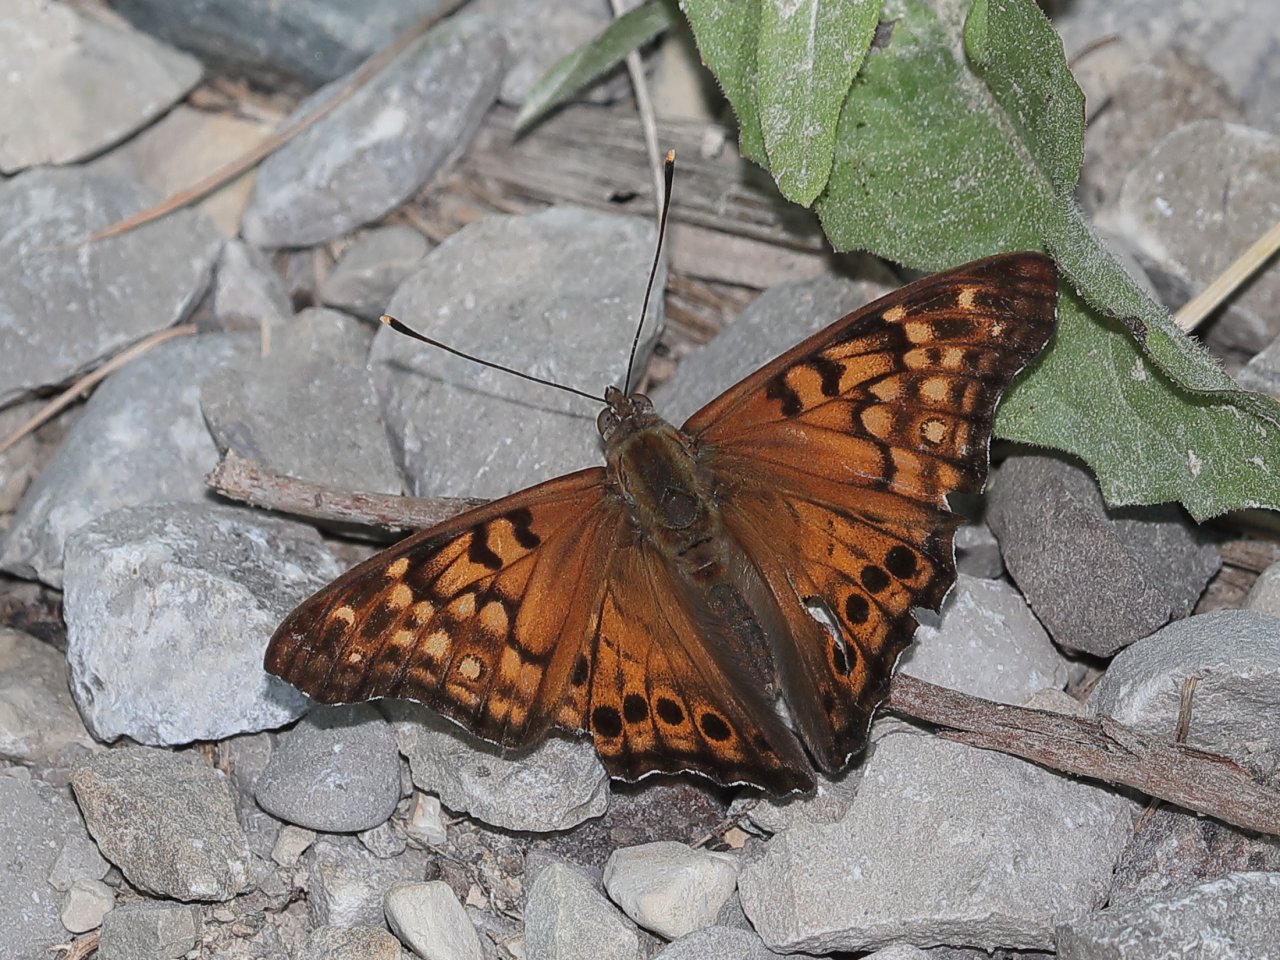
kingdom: Animalia
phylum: Arthropoda
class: Insecta
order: Lepidoptera
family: Nymphalidae
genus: Asterocampa
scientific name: Asterocampa clyton
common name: Tawny Emperor
